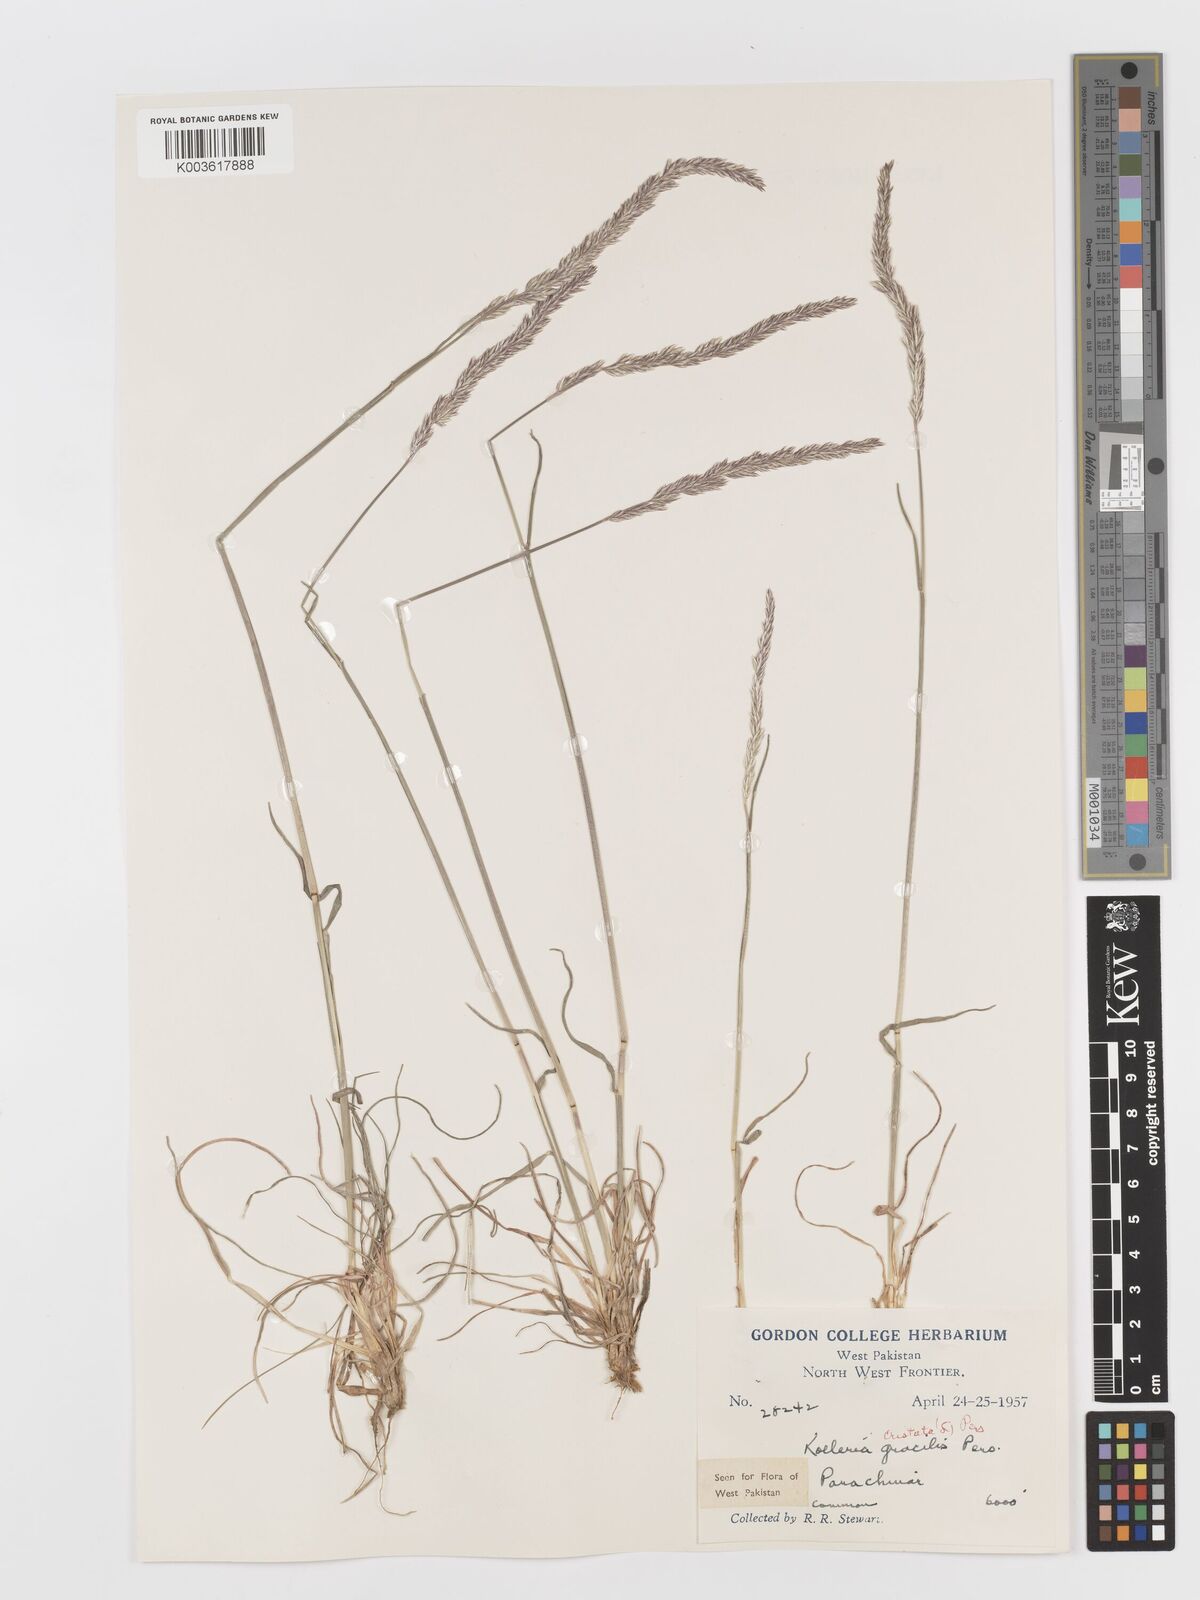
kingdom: Plantae
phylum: Tracheophyta
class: Liliopsida
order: Poales
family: Poaceae
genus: Koeleria
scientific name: Koeleria
